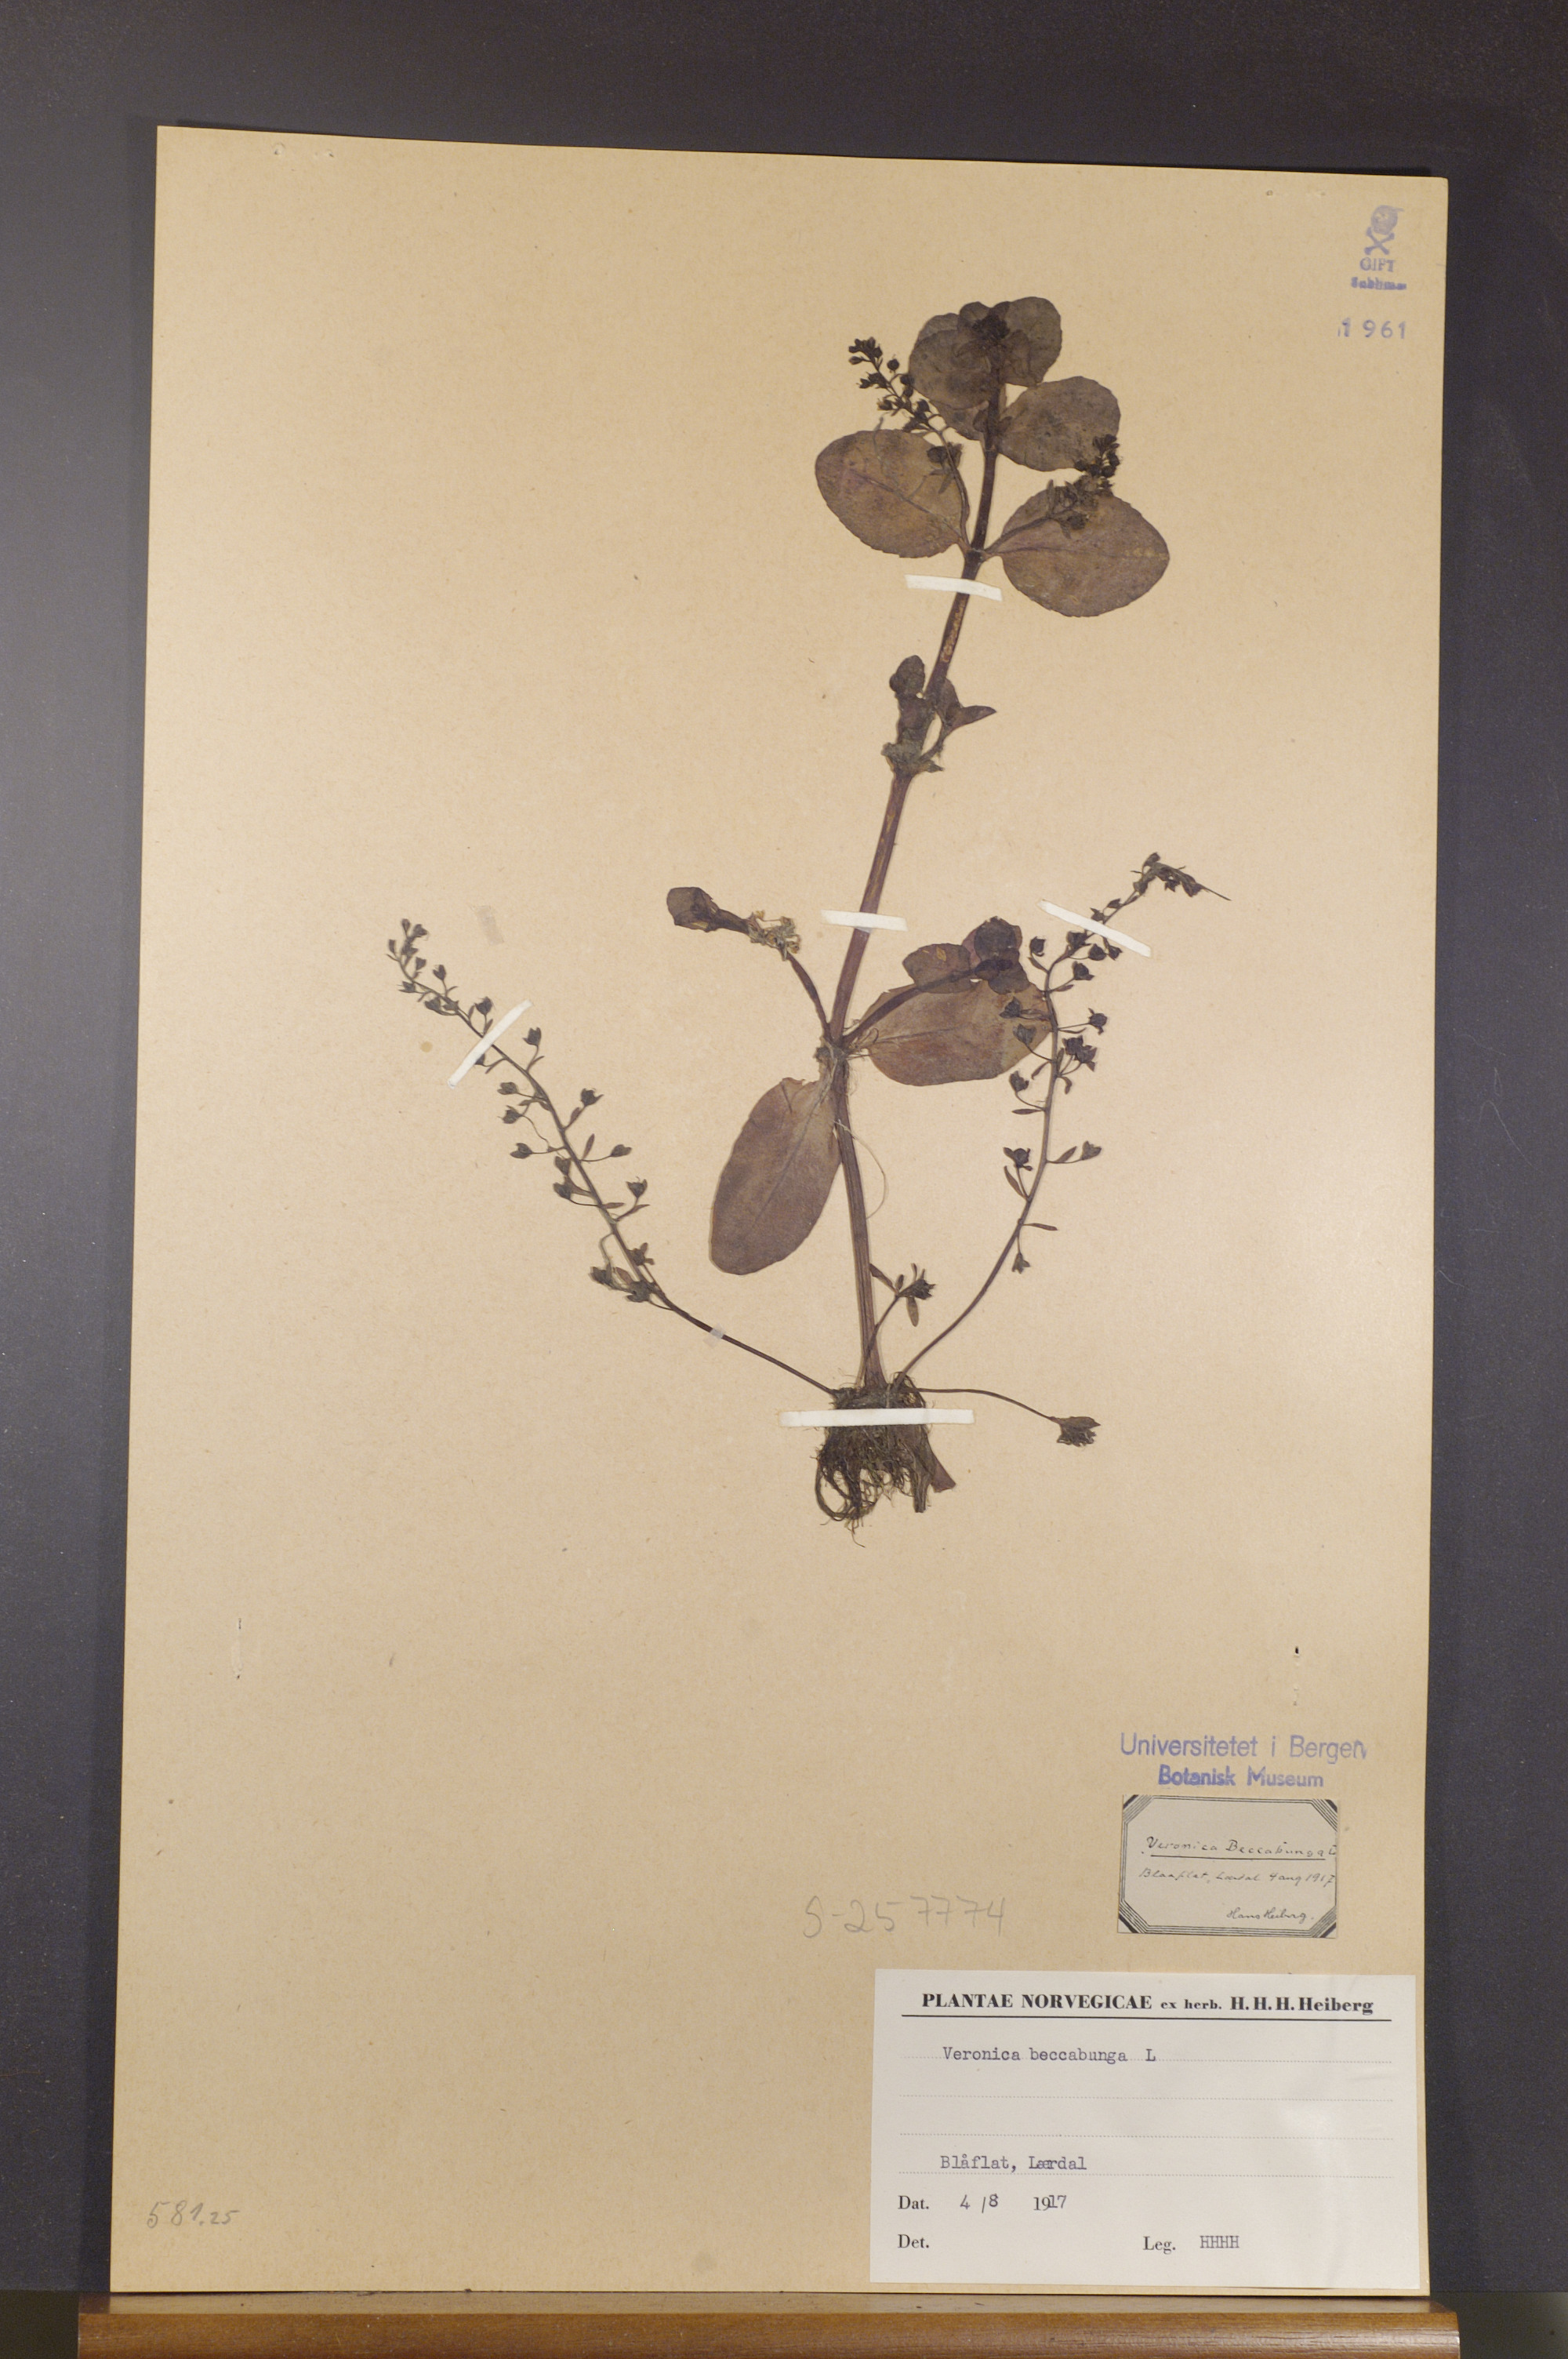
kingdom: Plantae
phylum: Tracheophyta
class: Magnoliopsida
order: Lamiales
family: Plantaginaceae
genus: Veronica
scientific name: Veronica beccabunga
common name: Brooklime
